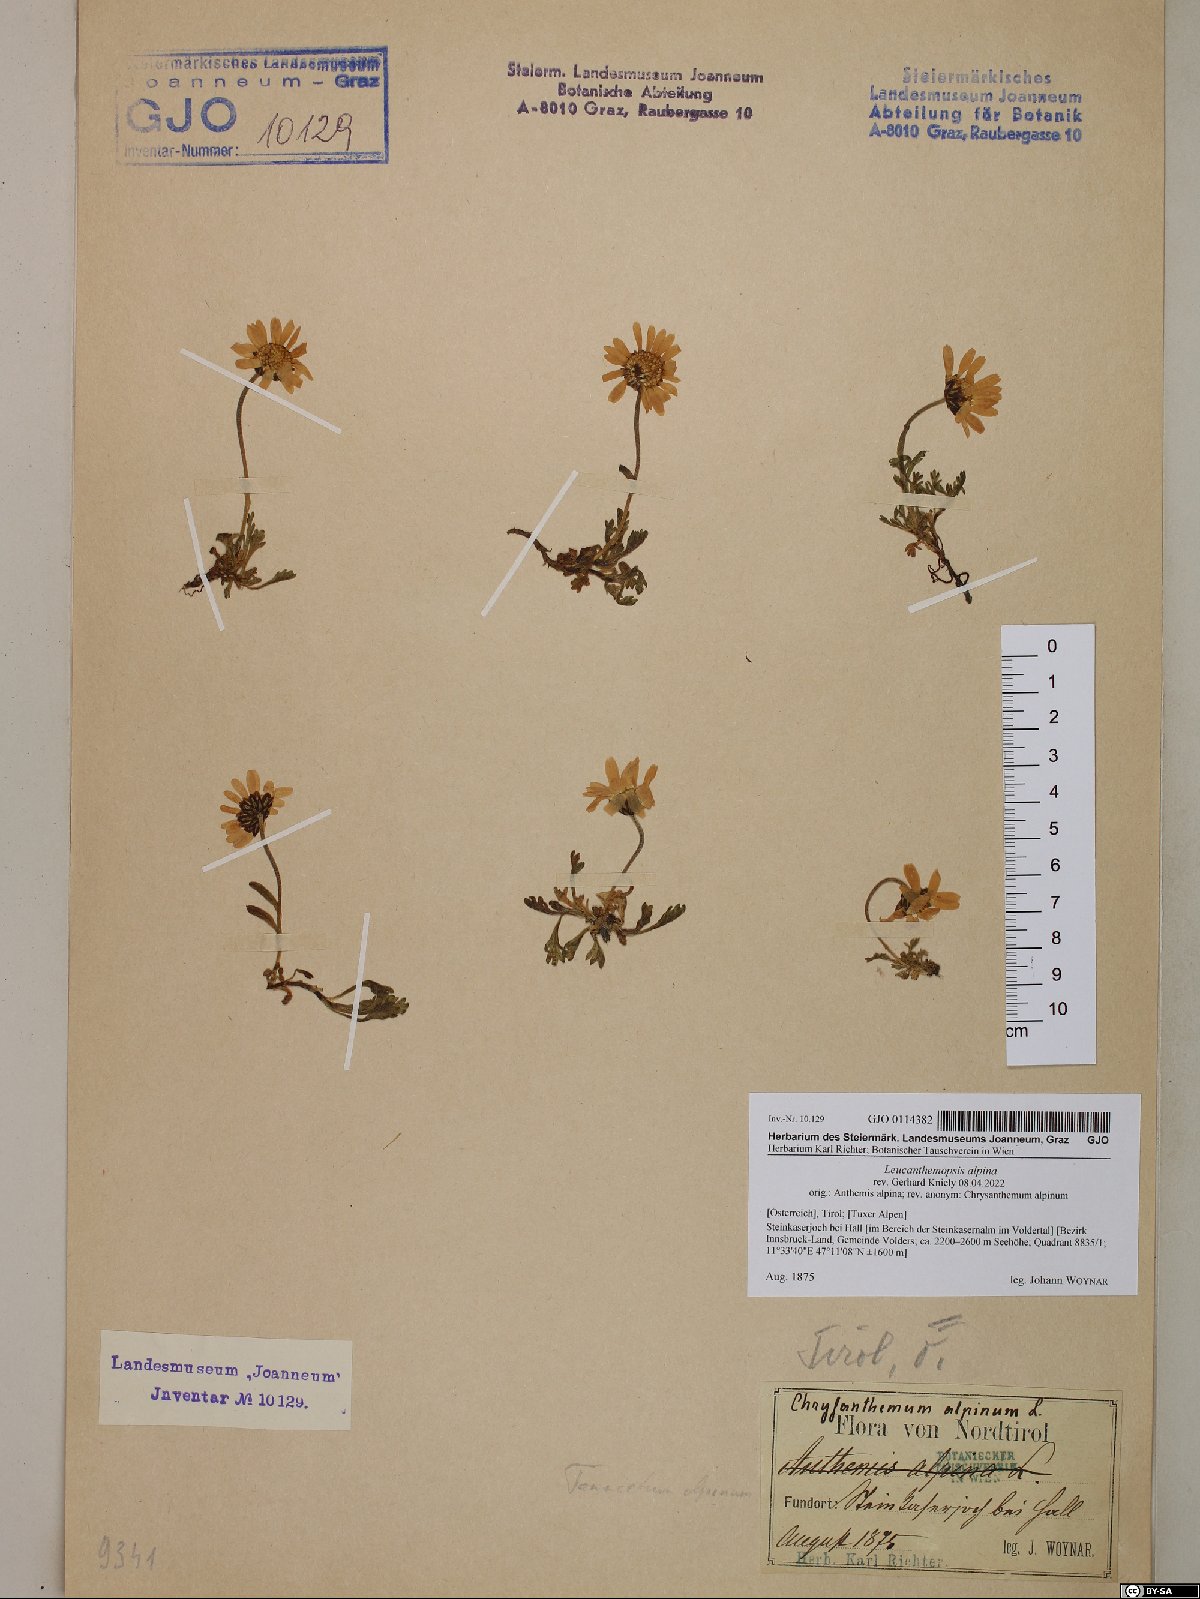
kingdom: Plantae
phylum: Tracheophyta
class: Magnoliopsida
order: Asterales
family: Asteraceae
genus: Leucanthemopsis
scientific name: Leucanthemopsis alpina
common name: Alpine moon daisy
